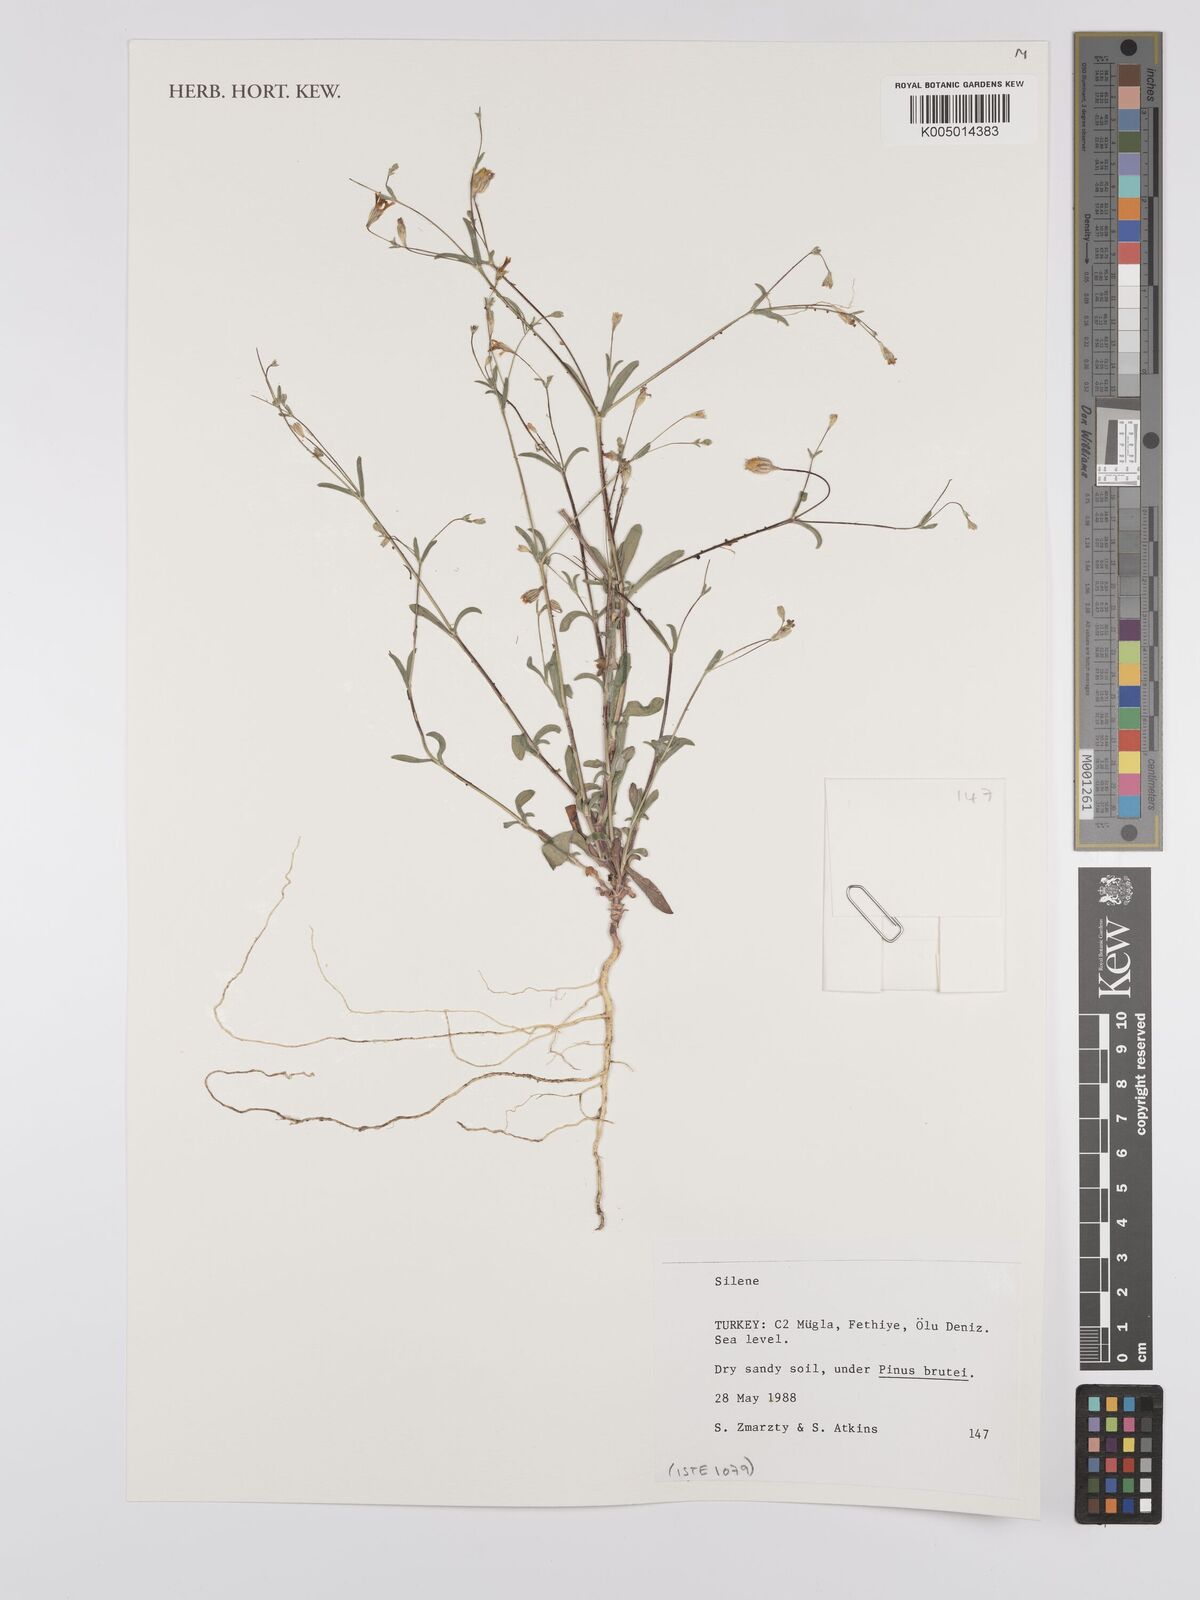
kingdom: Plantae
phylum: Tracheophyta
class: Magnoliopsida
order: Caryophyllales
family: Caryophyllaceae
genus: Silene
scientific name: Silene
